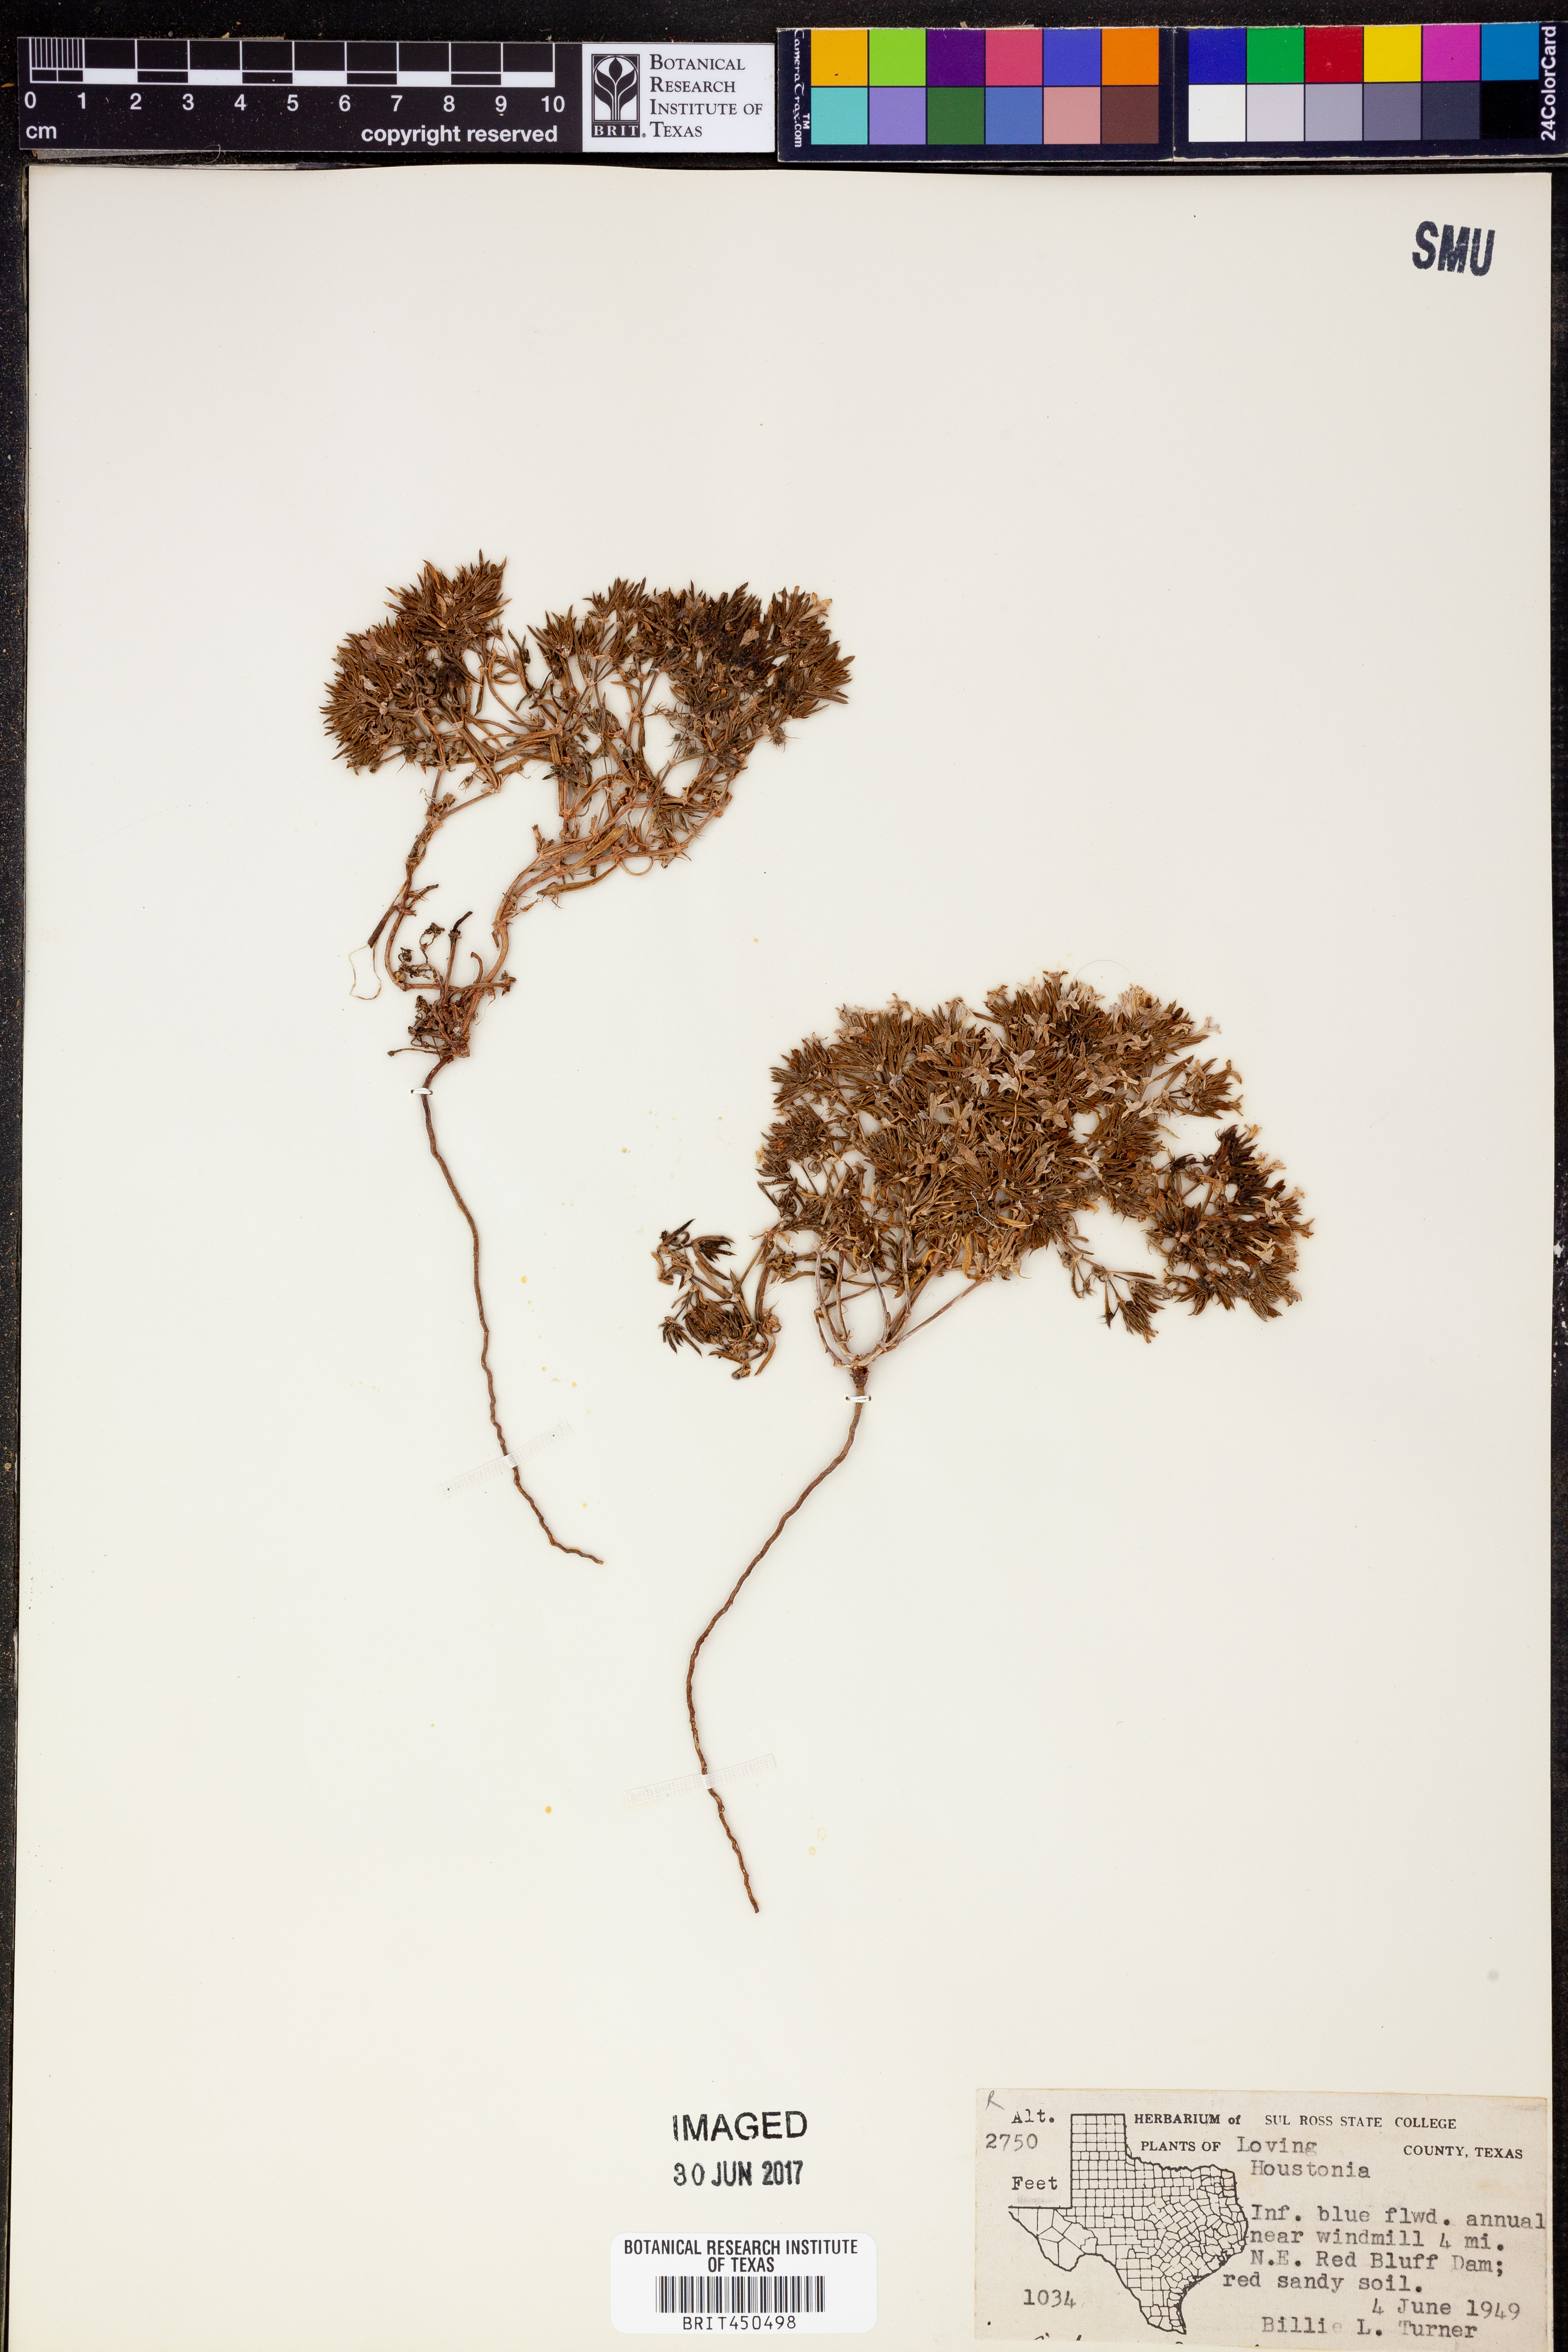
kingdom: Plantae
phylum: Tracheophyta
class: Magnoliopsida
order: Gentianales
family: Rubiaceae
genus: Houstonia
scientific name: Houstonia
